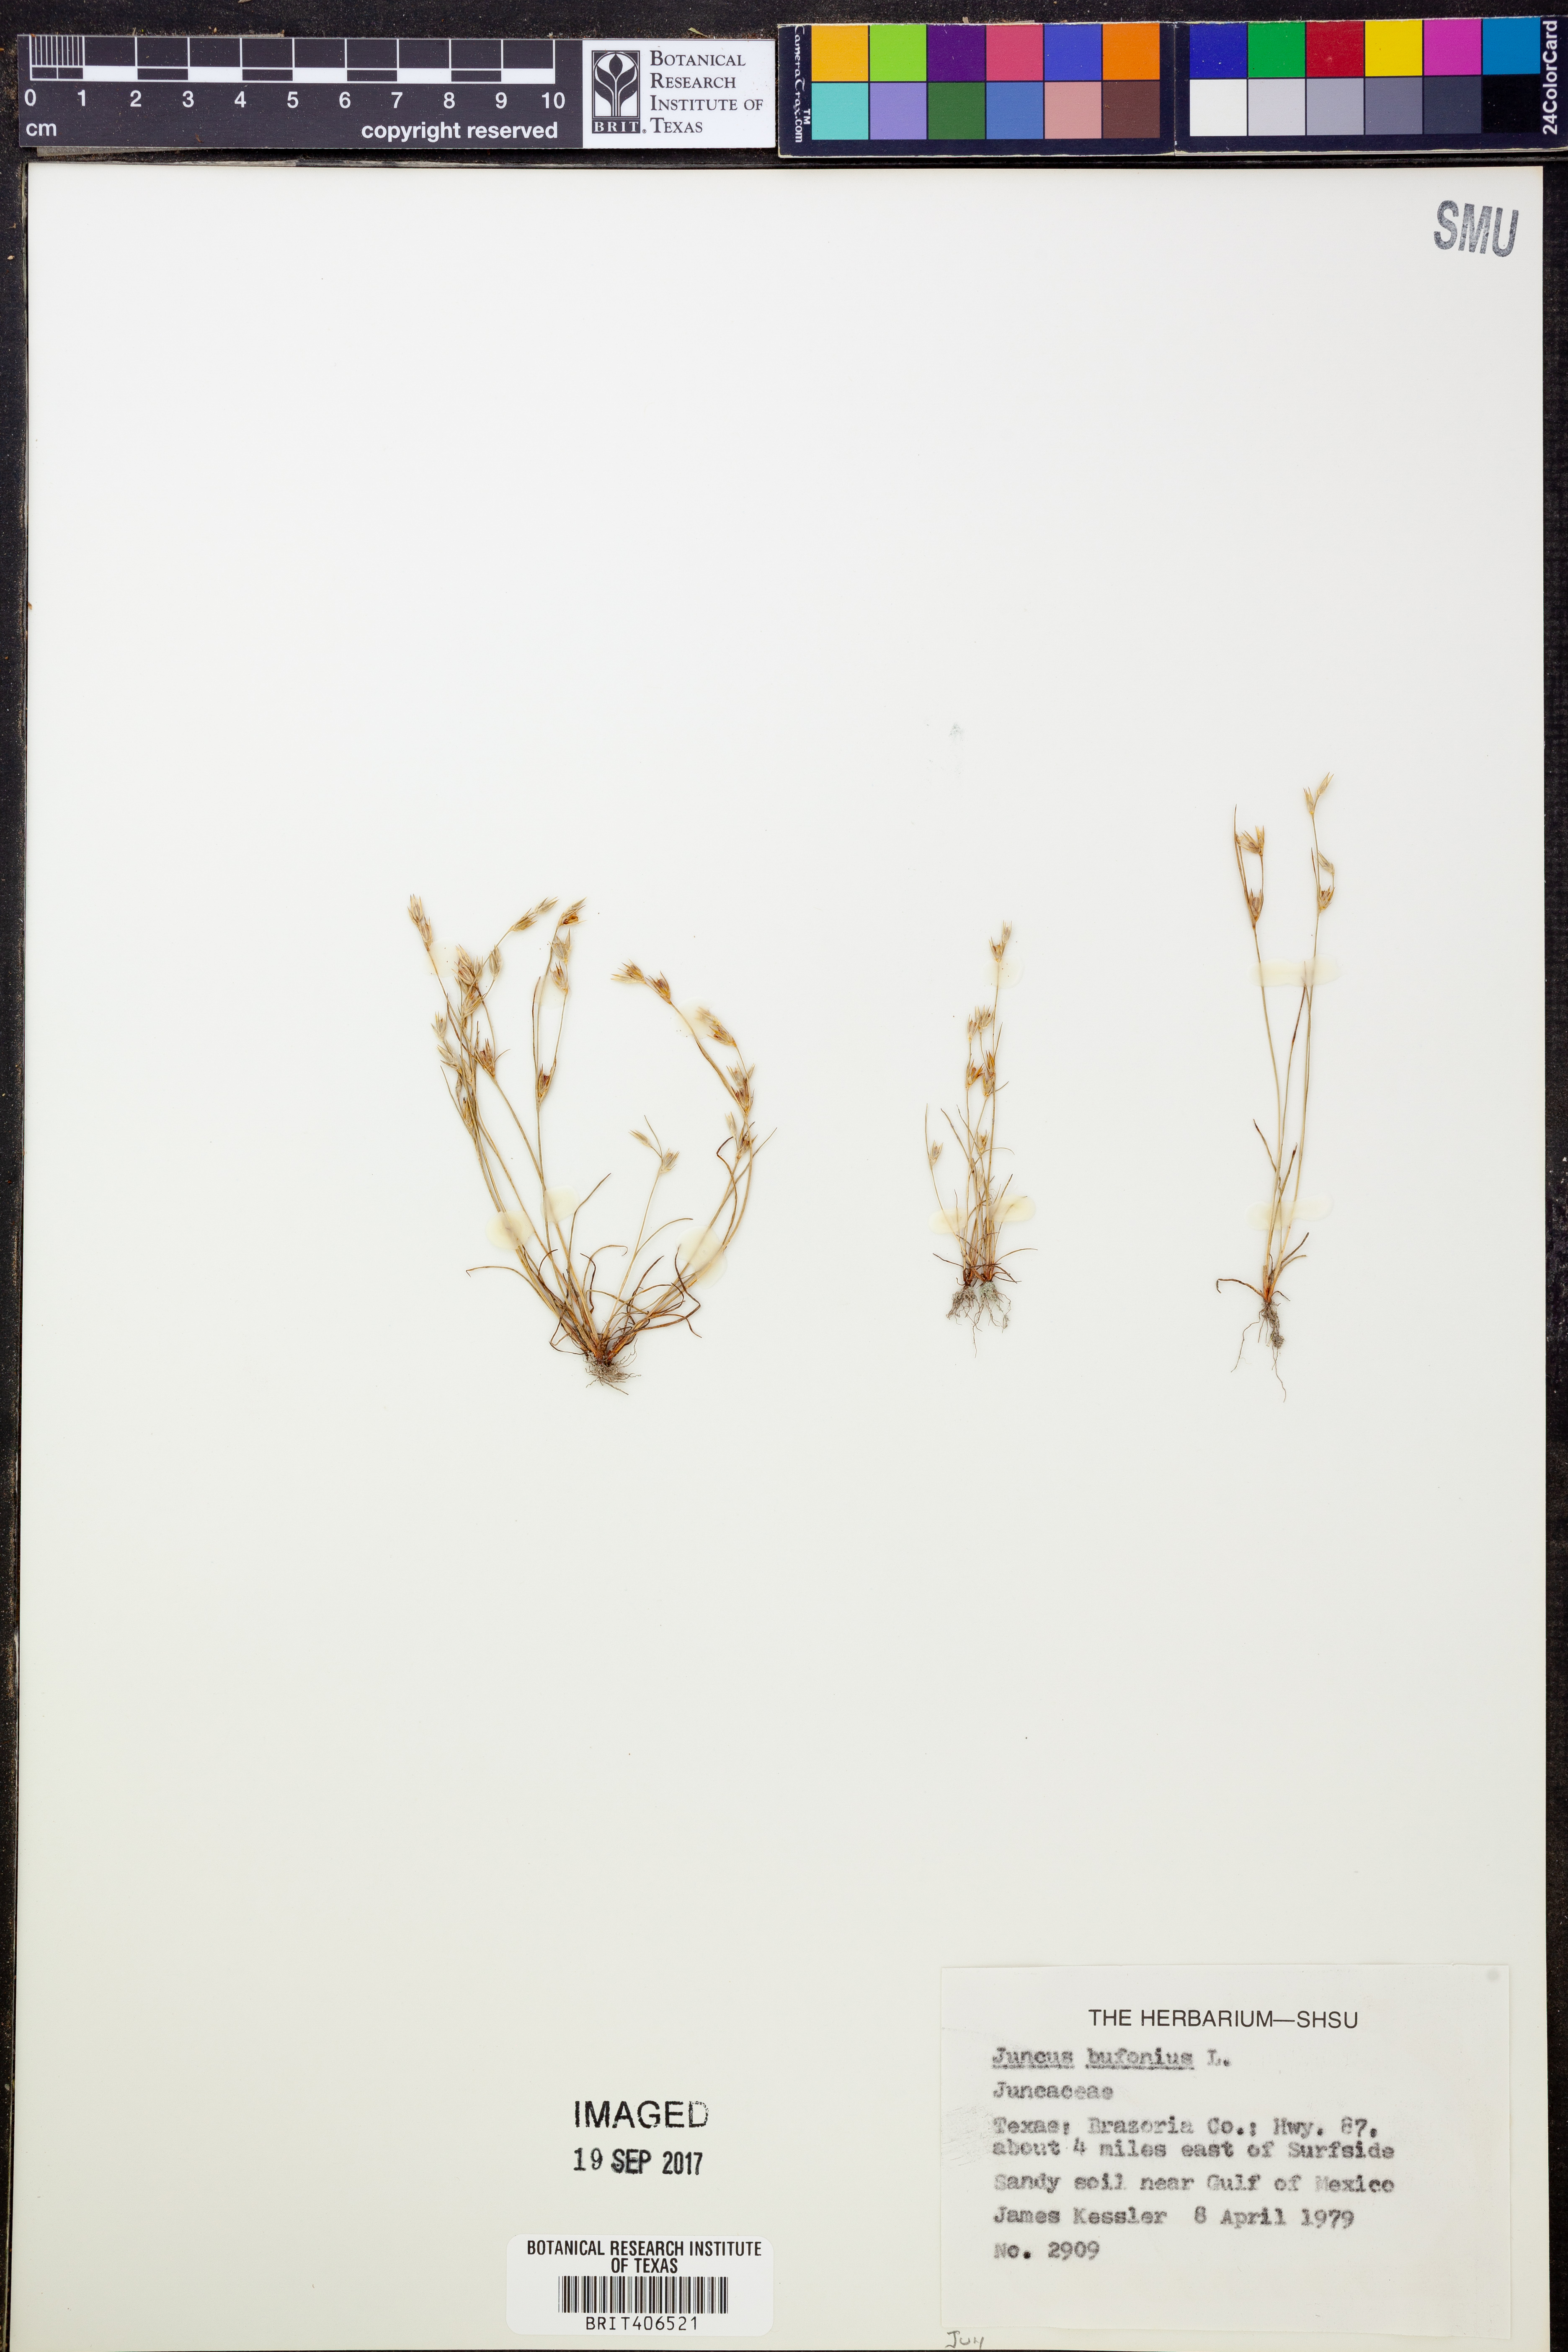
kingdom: Plantae
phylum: Tracheophyta
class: Liliopsida
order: Poales
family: Juncaceae
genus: Juncus
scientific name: Juncus bufonius
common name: Toad rush
